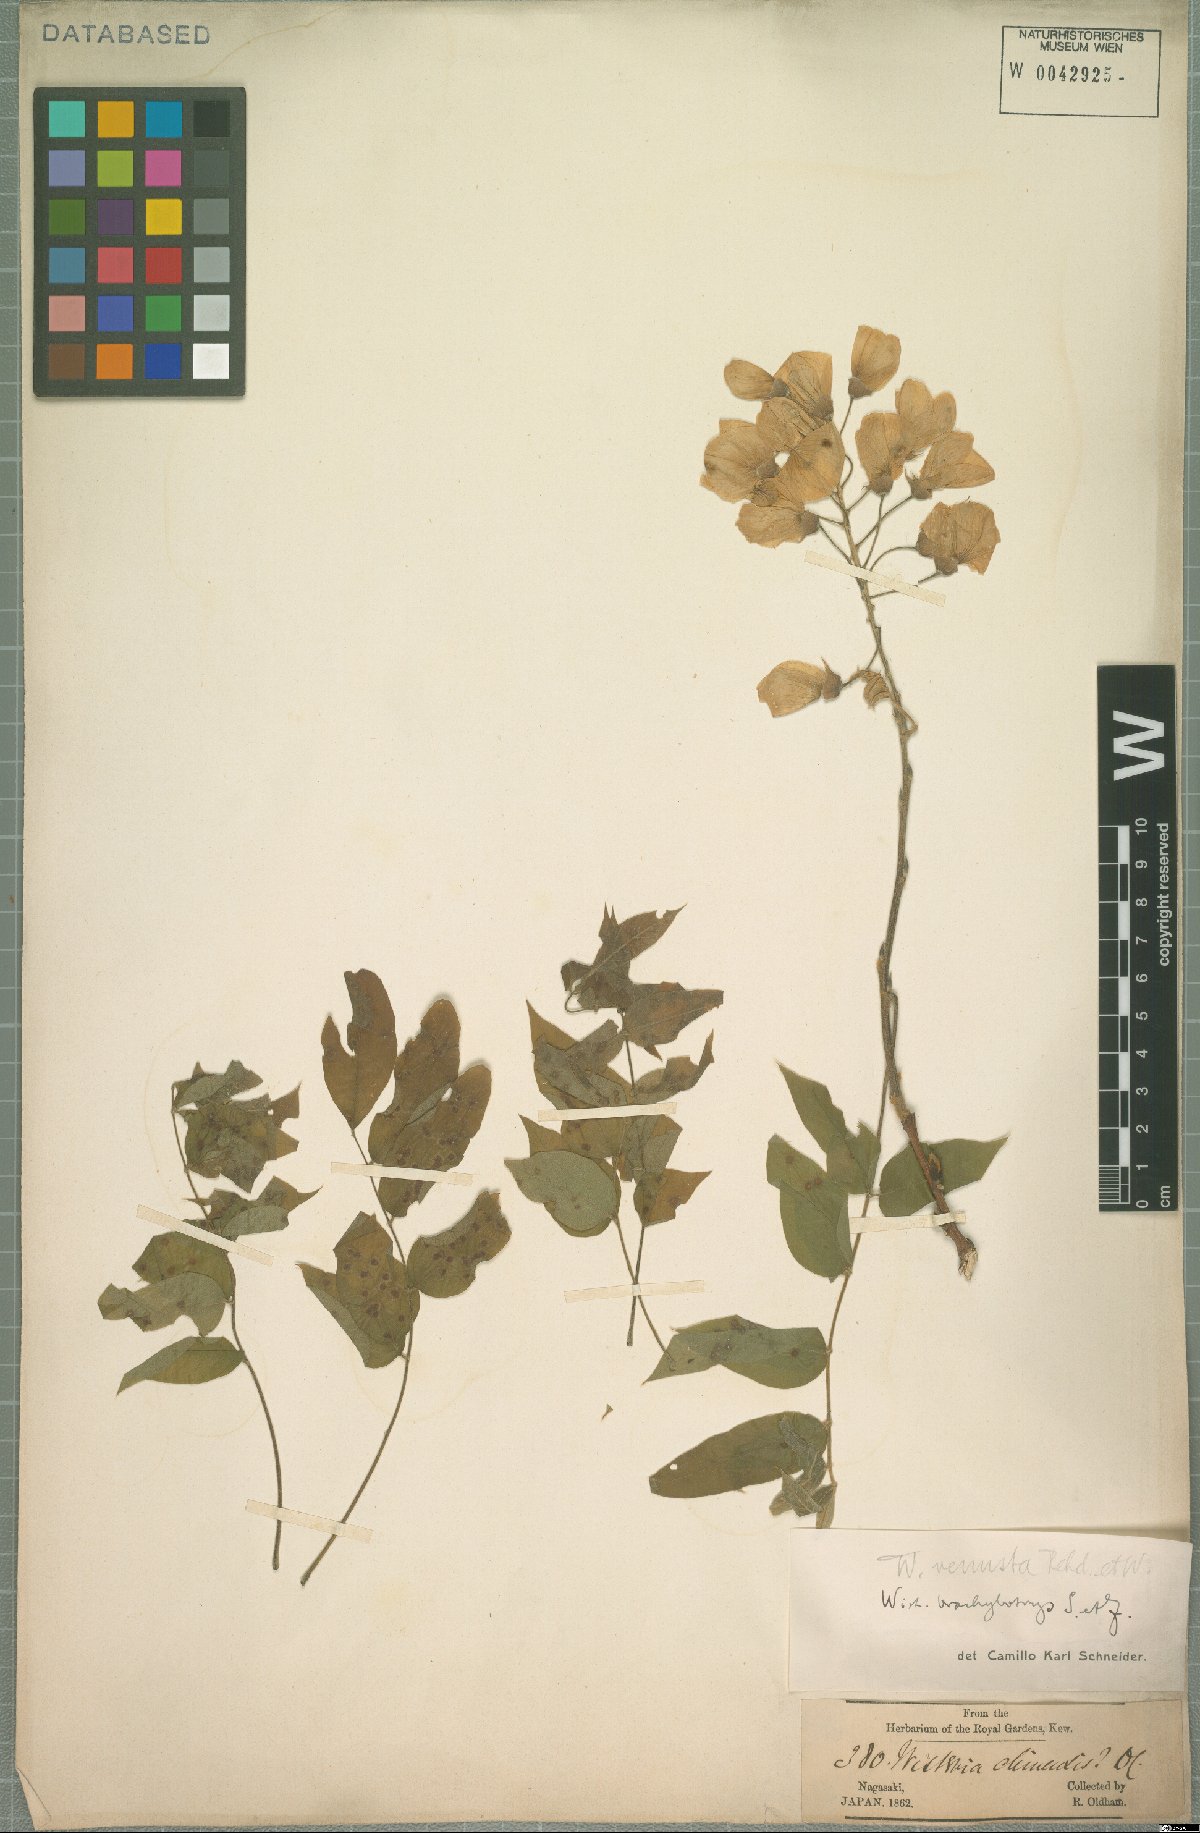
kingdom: Plantae
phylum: Tracheophyta
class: Magnoliopsida
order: Fabales
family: Fabaceae
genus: Wisteria
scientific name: Wisteria brachybotrys
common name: Silky wisteria
